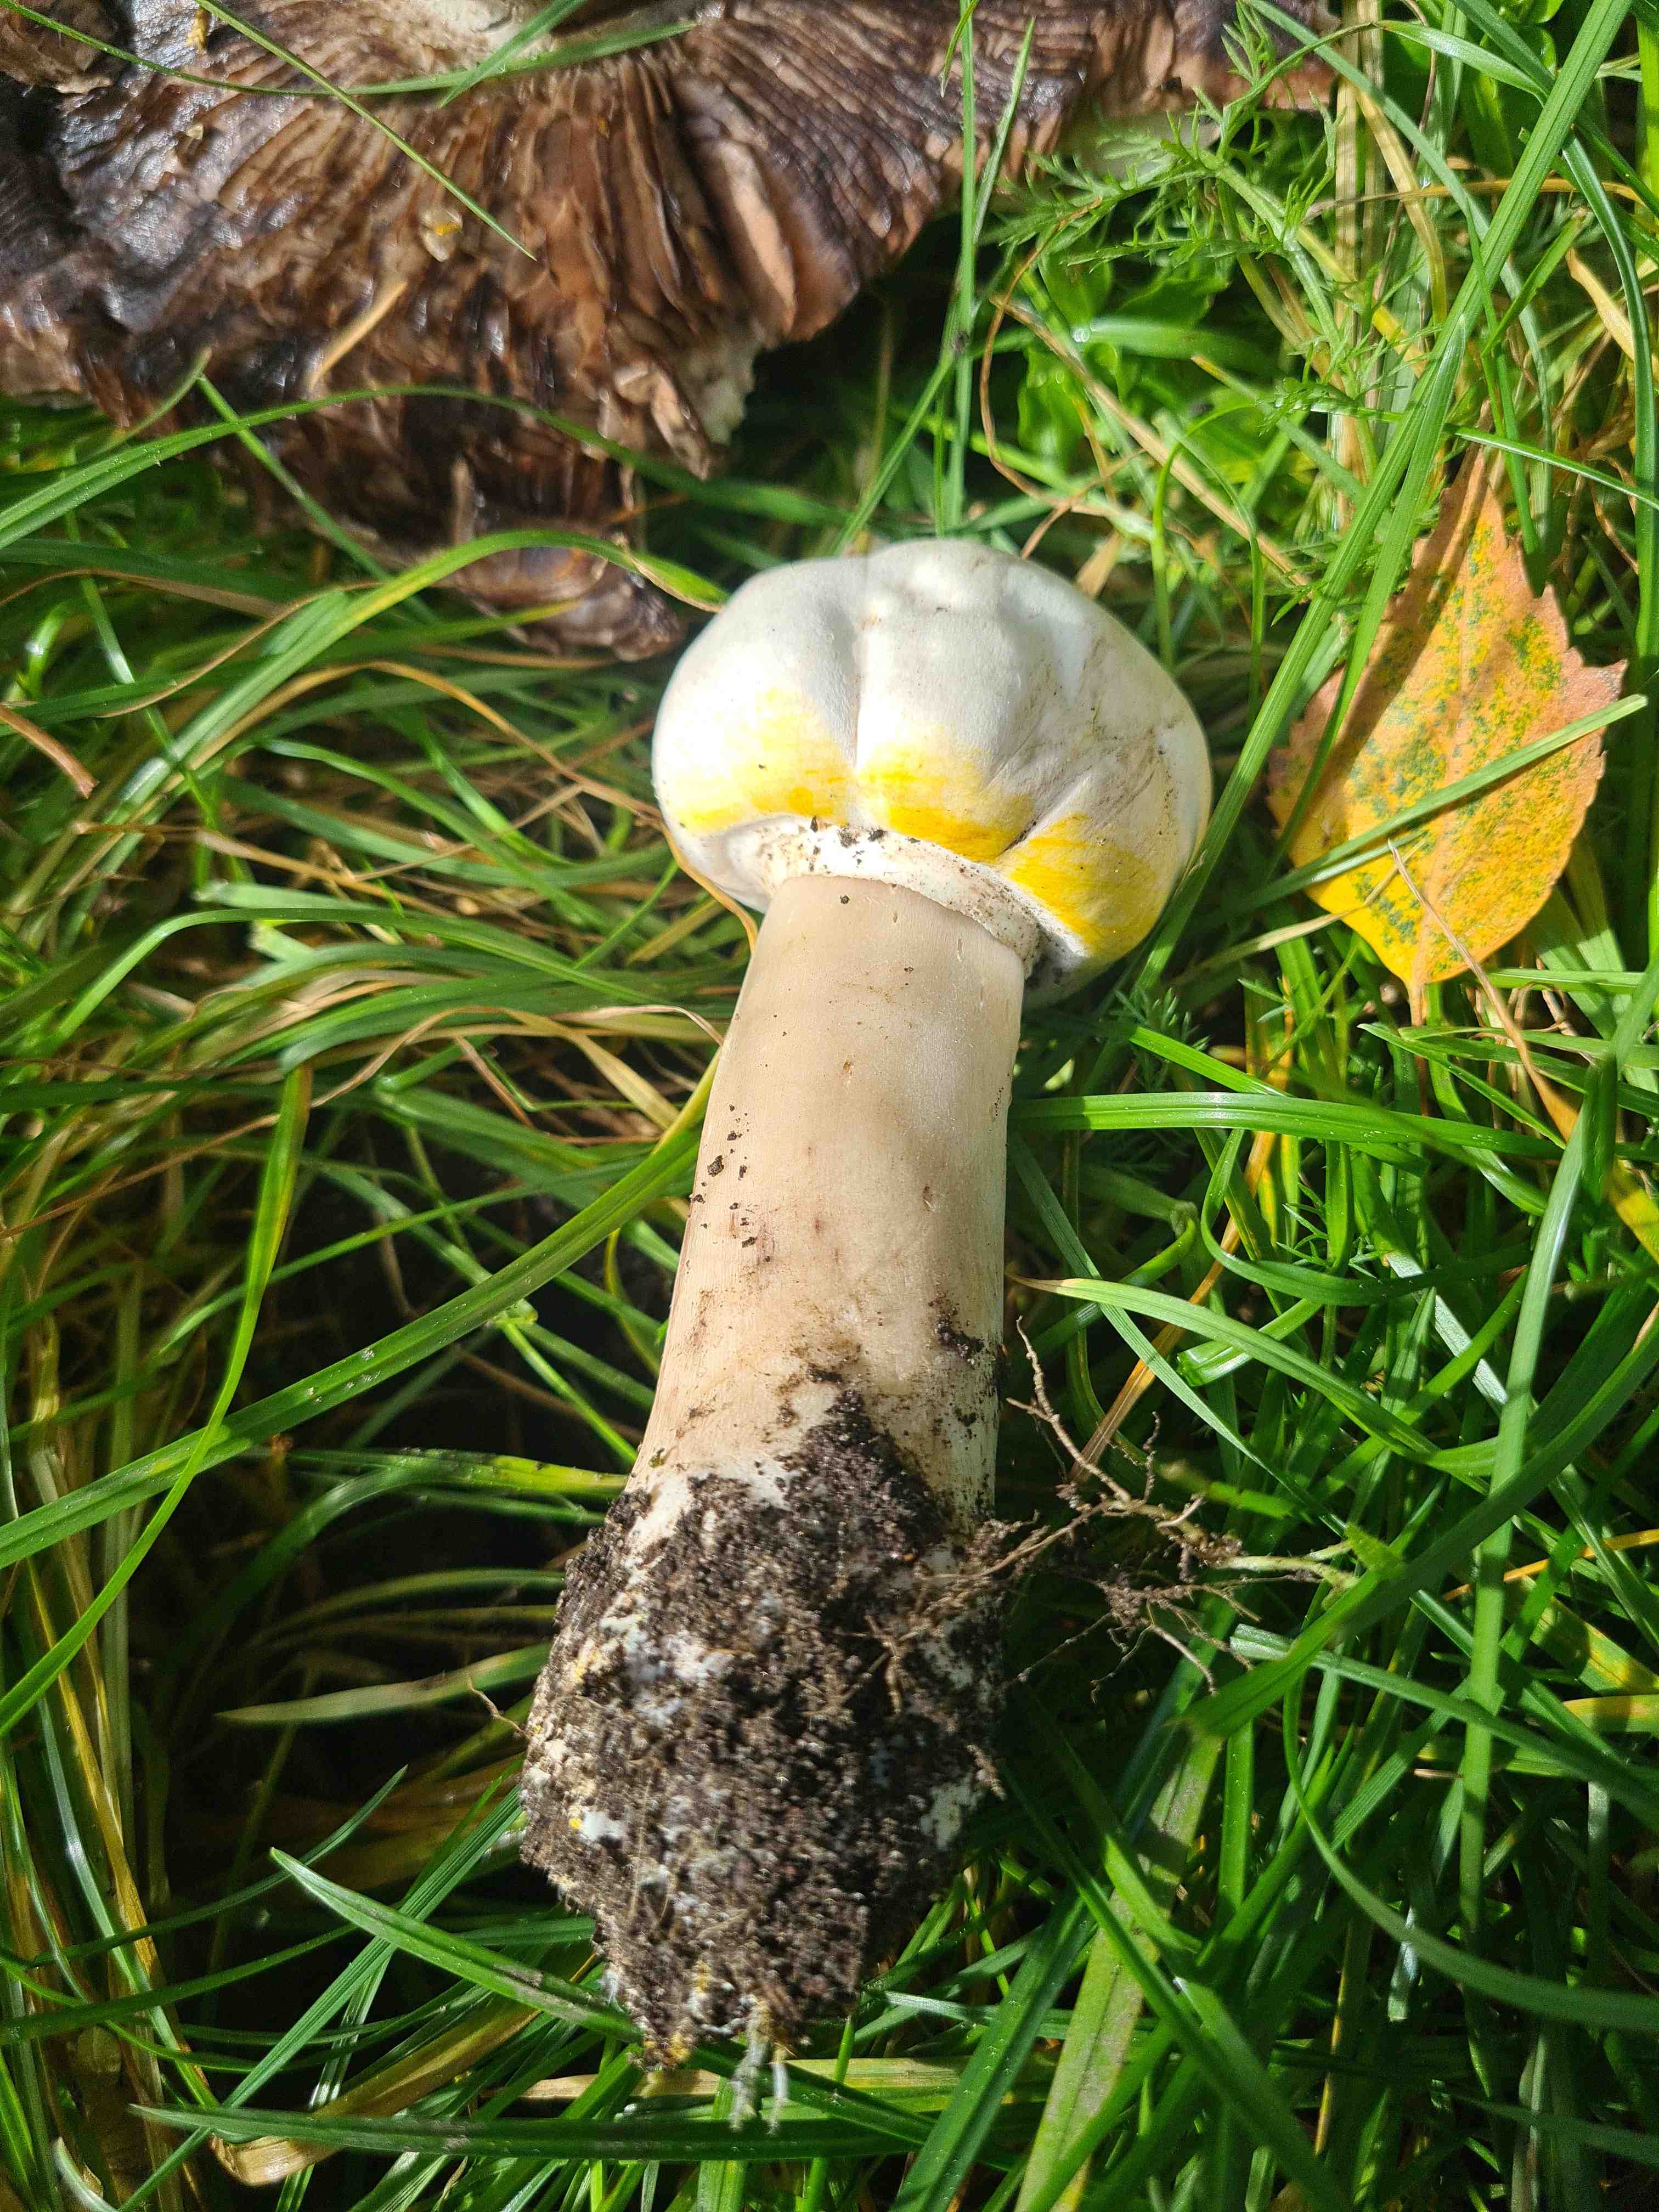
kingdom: Fungi
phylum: Basidiomycota
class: Agaricomycetes
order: Agaricales
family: Agaricaceae
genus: Agaricus
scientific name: Agaricus xanthodermus
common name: karbol-champignon
